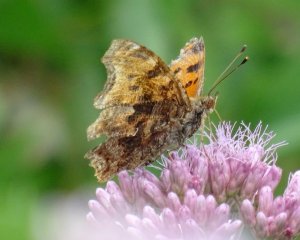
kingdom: Animalia
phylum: Arthropoda
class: Insecta
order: Lepidoptera
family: Nymphalidae
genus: Polygonia
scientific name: Polygonia comma
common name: Eastern Comma
